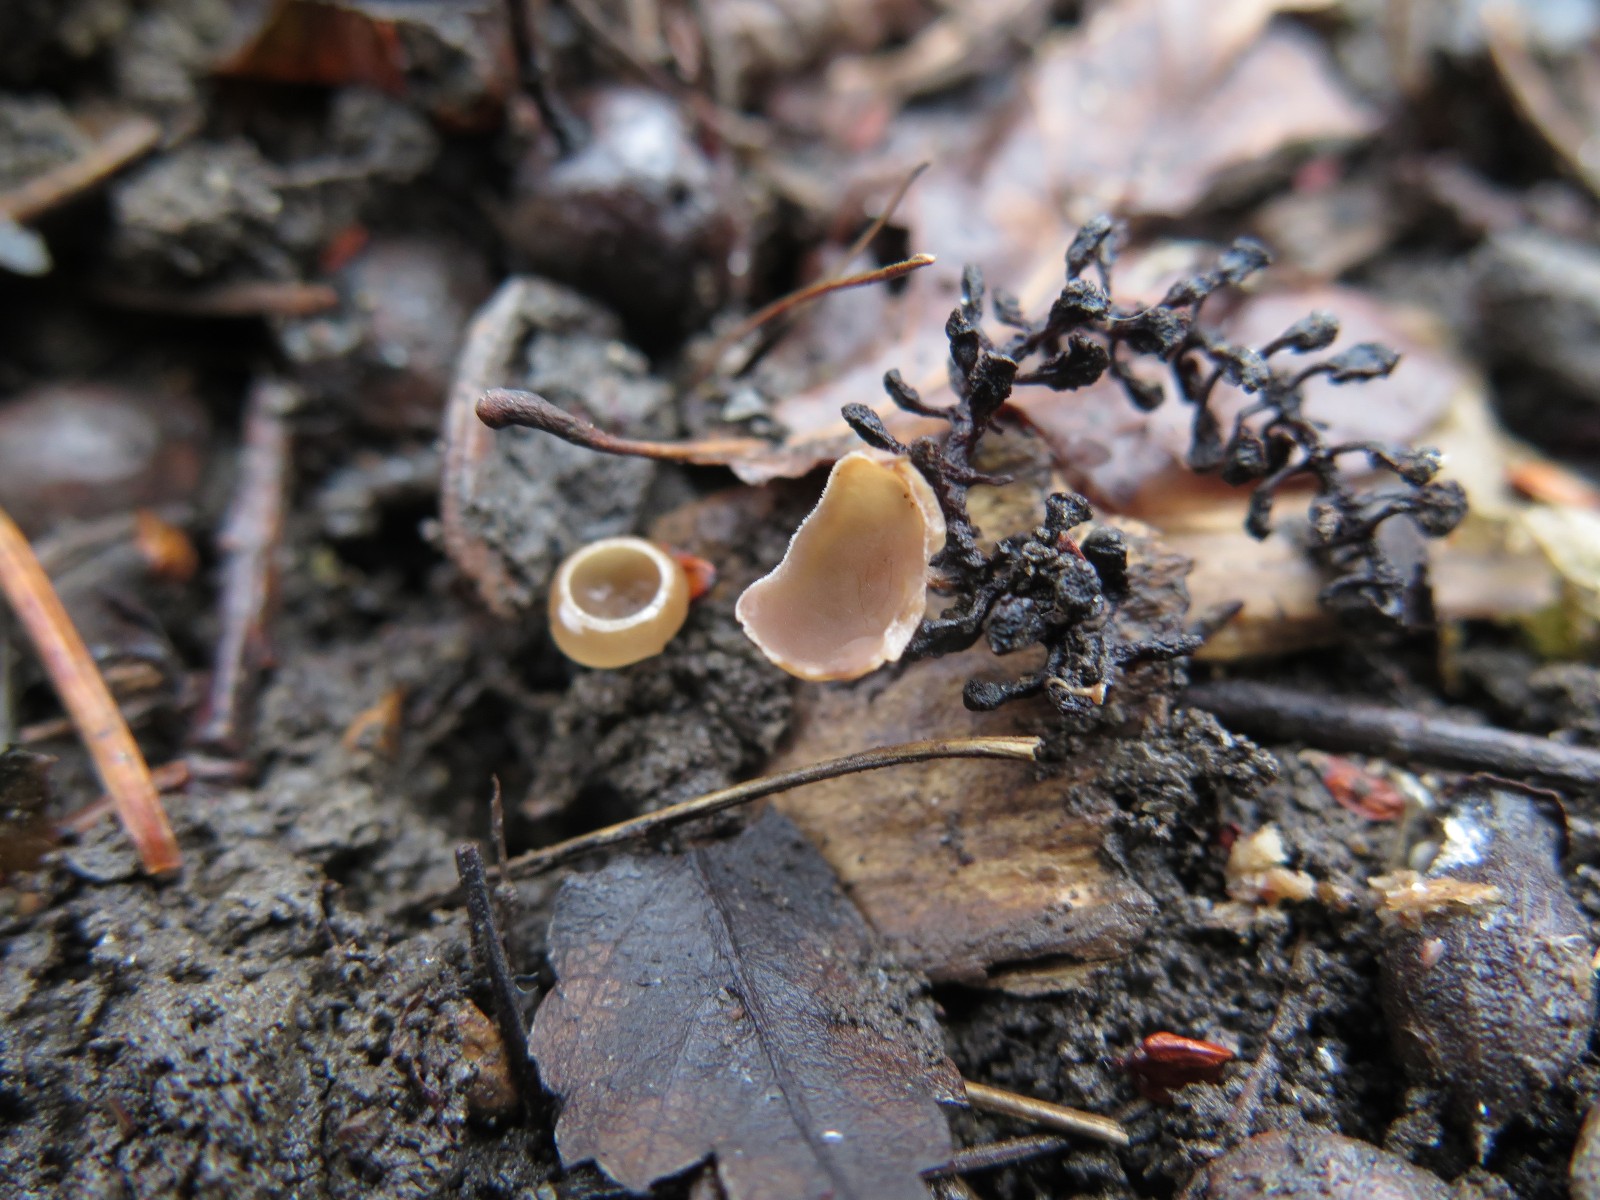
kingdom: Fungi
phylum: Ascomycota
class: Leotiomycetes
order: Helotiales
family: Sclerotiniaceae
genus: Ciboria
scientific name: Ciboria amentacea
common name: ellerakle-knoldskive
